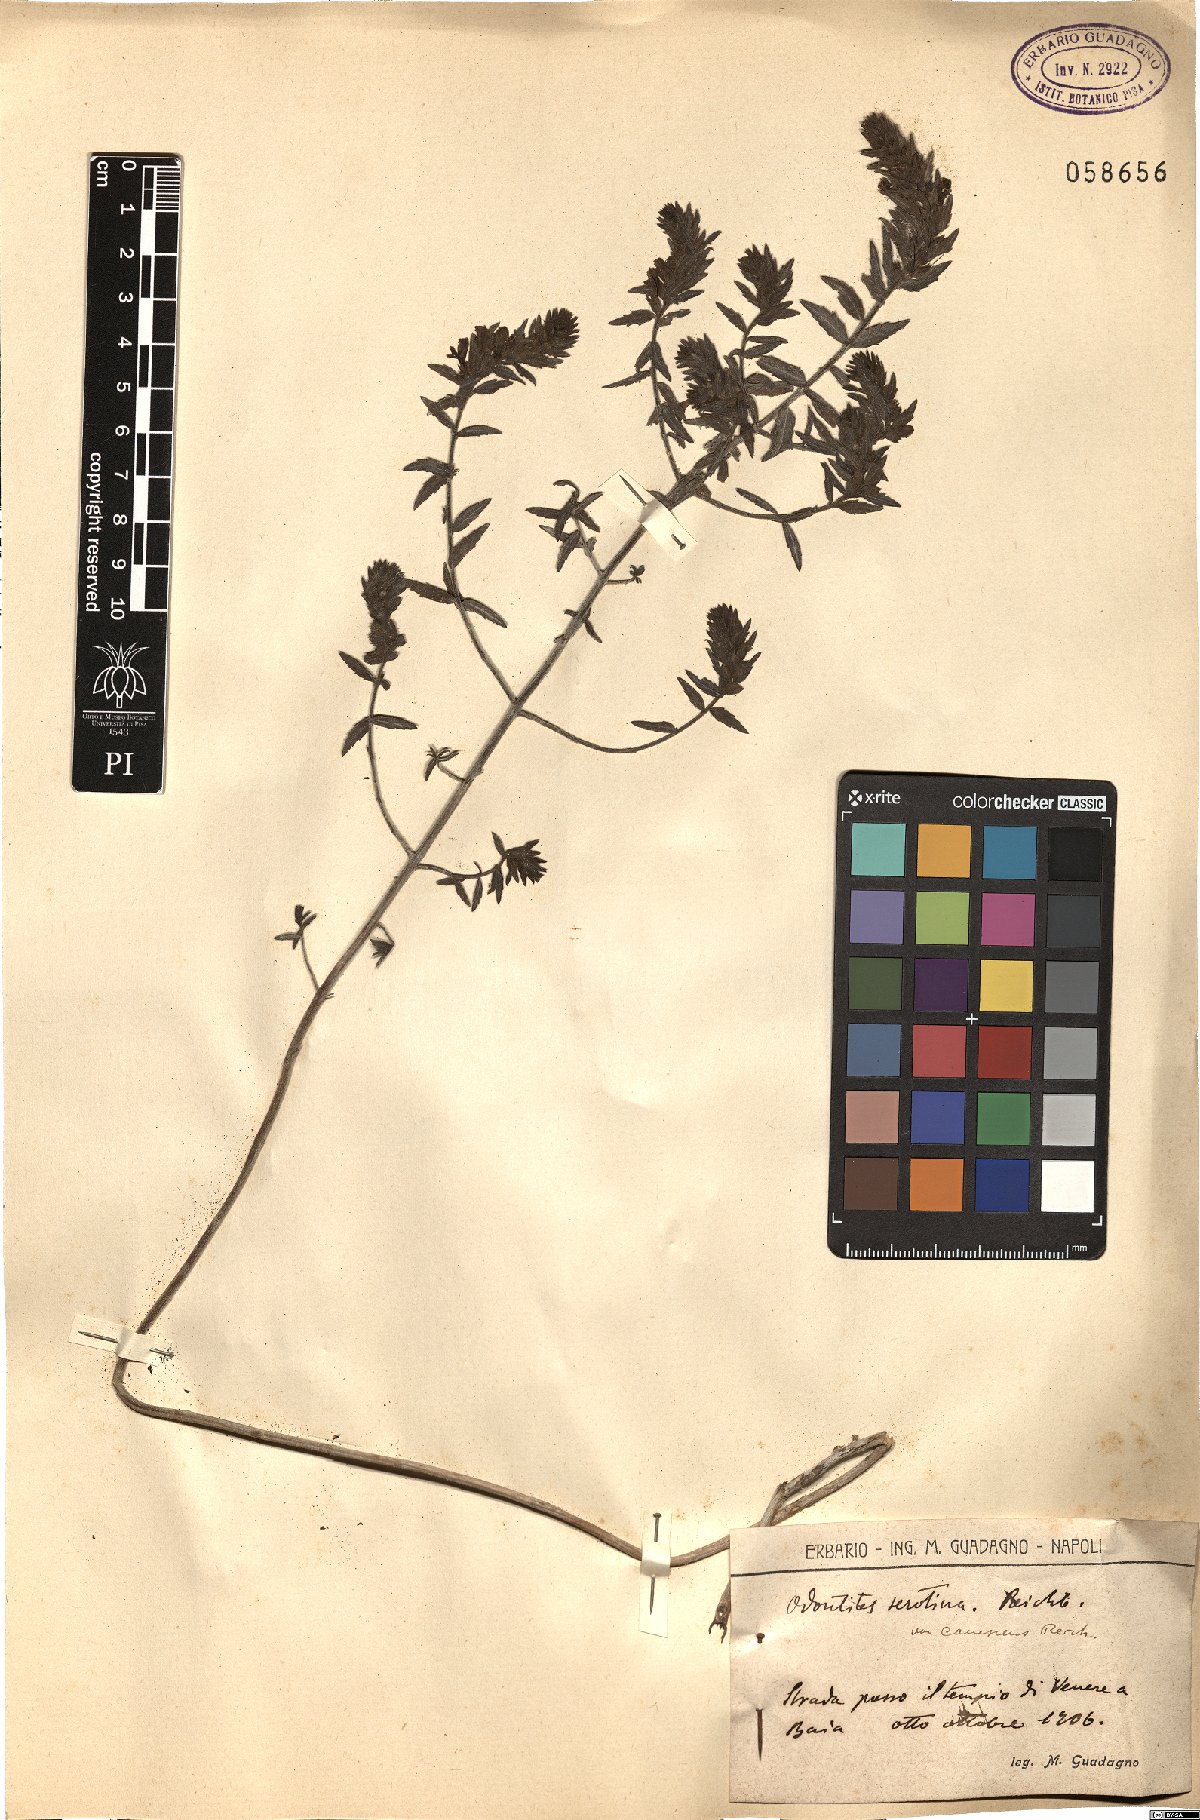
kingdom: Plantae
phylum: Tracheophyta
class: Magnoliopsida
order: Lamiales
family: Orobanchaceae
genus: Odontites
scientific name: Odontites vernus
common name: Red bartsia
